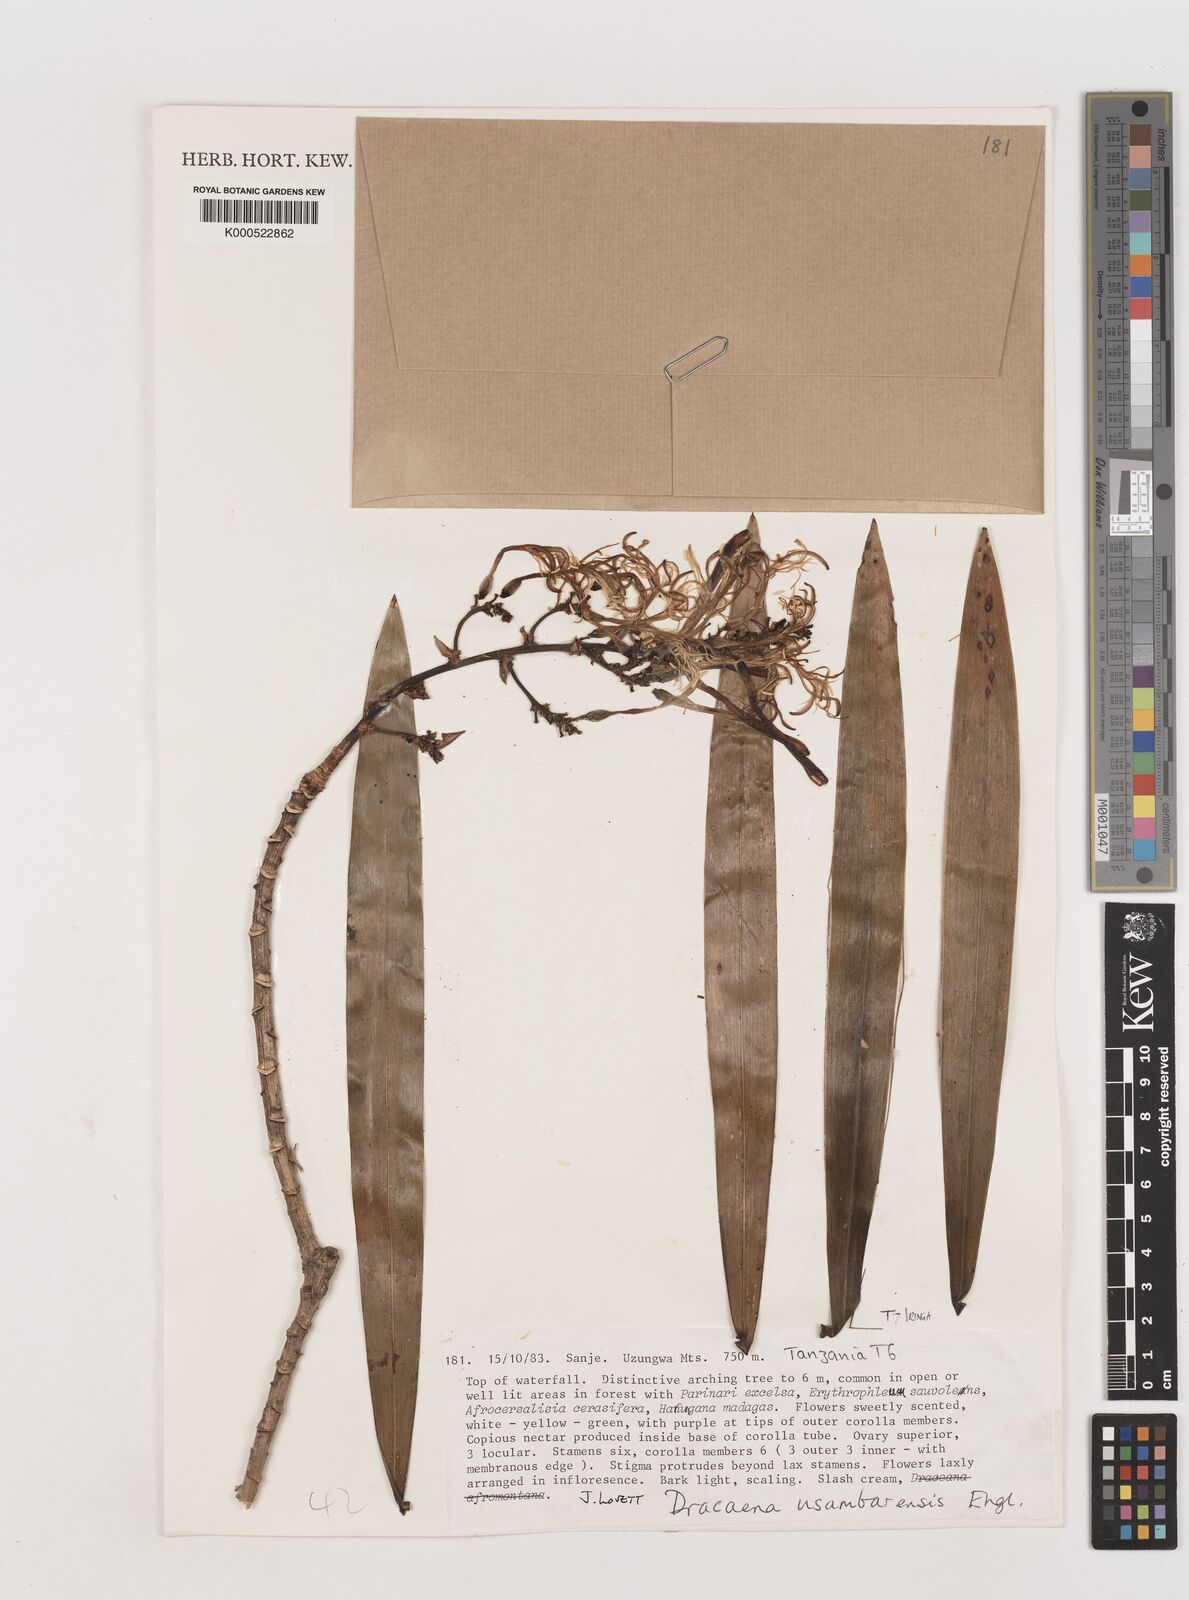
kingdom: Plantae
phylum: Tracheophyta
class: Liliopsida
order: Asparagales
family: Asparagaceae
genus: Dracaena
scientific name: Dracaena usambarensis
